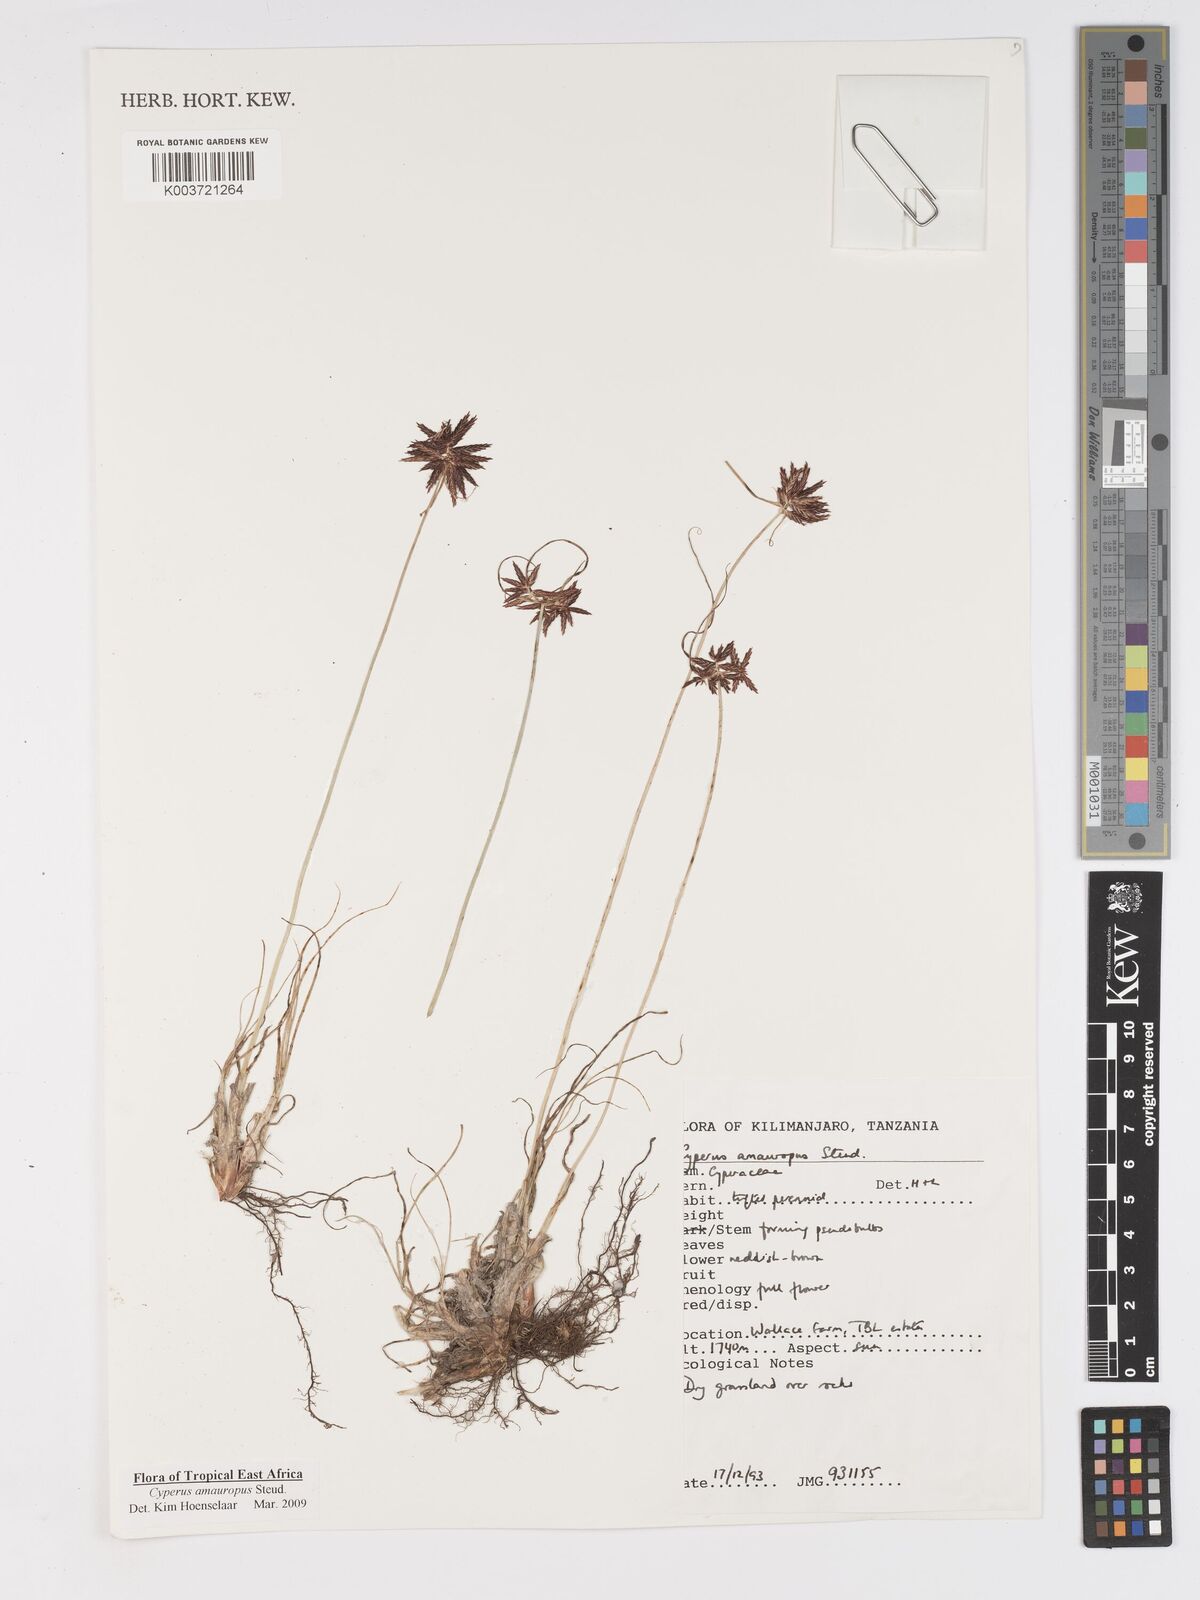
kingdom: Plantae
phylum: Tracheophyta
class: Liliopsida
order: Poales
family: Cyperaceae
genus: Cyperus
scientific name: Cyperus amauropus
